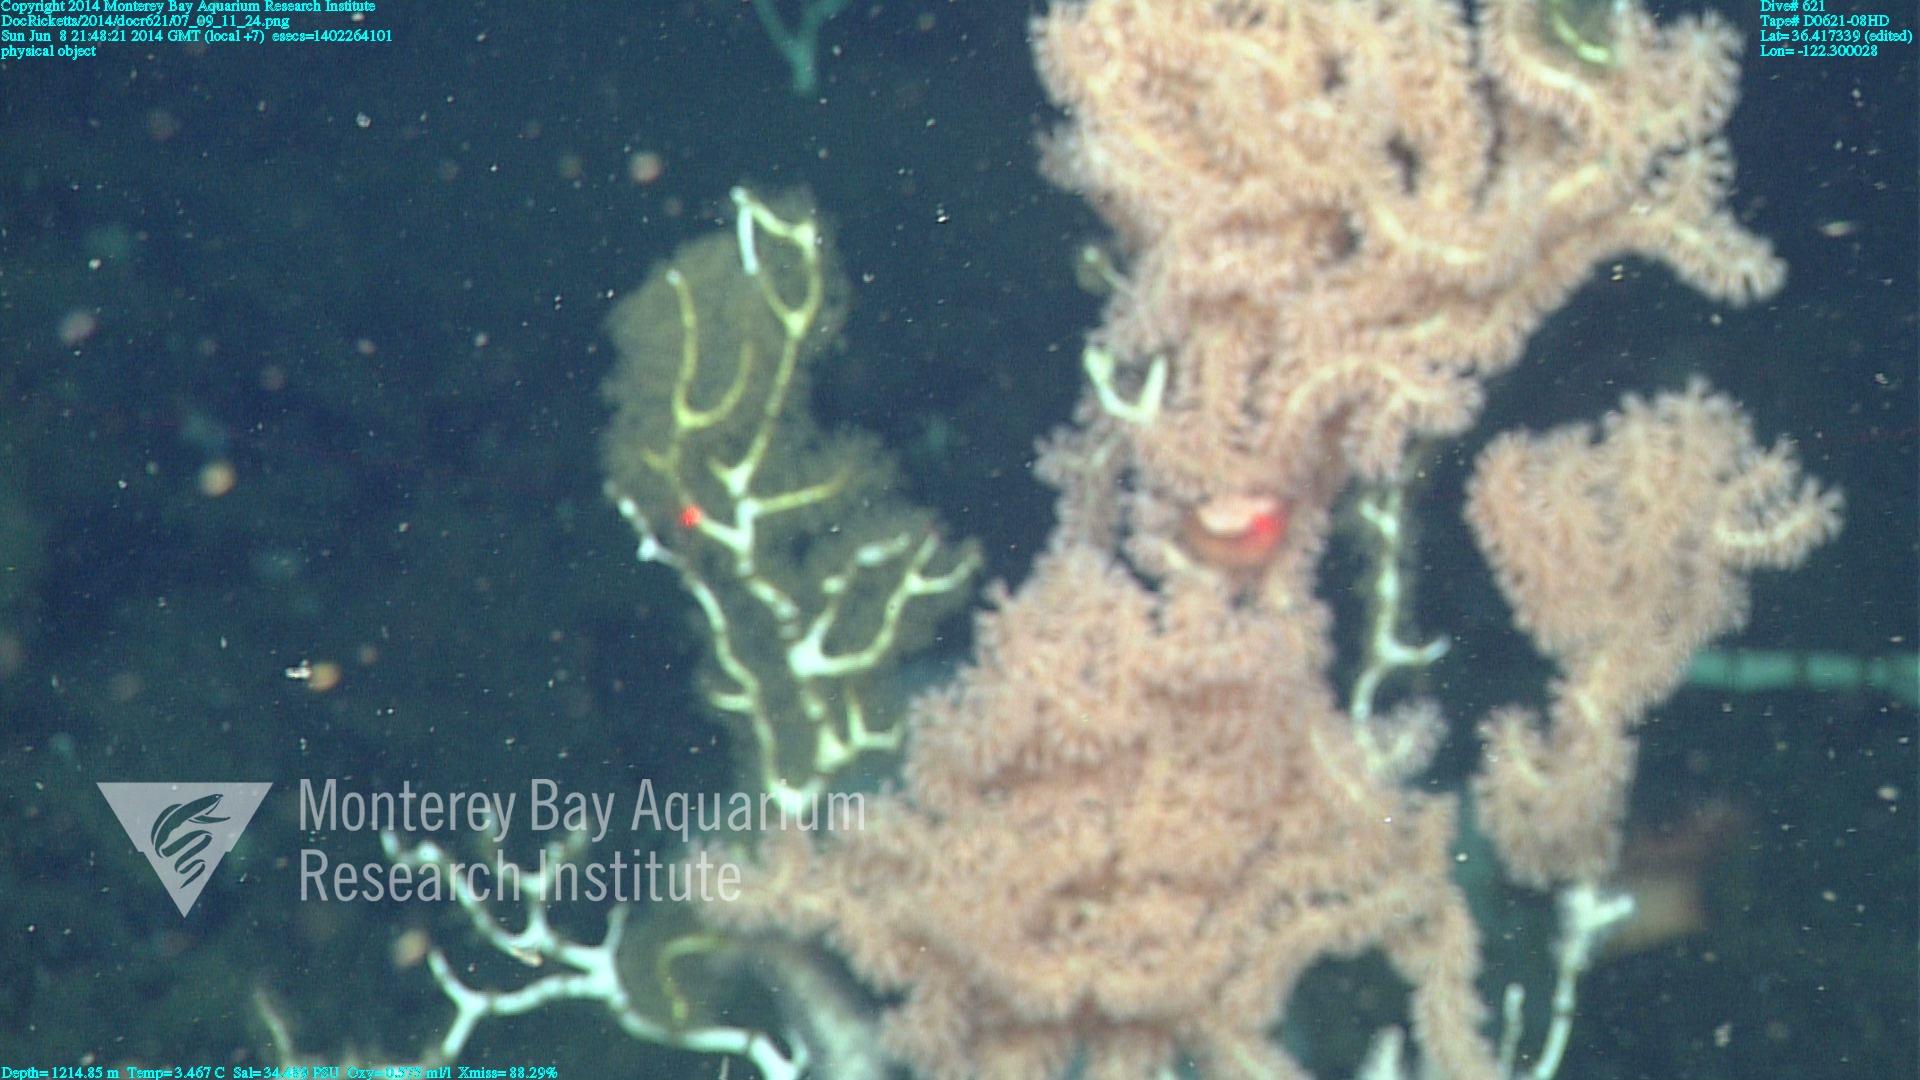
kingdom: Animalia
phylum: Cnidaria
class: Anthozoa
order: Scleralcyonacea
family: Keratoisididae
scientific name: Keratoisididae
